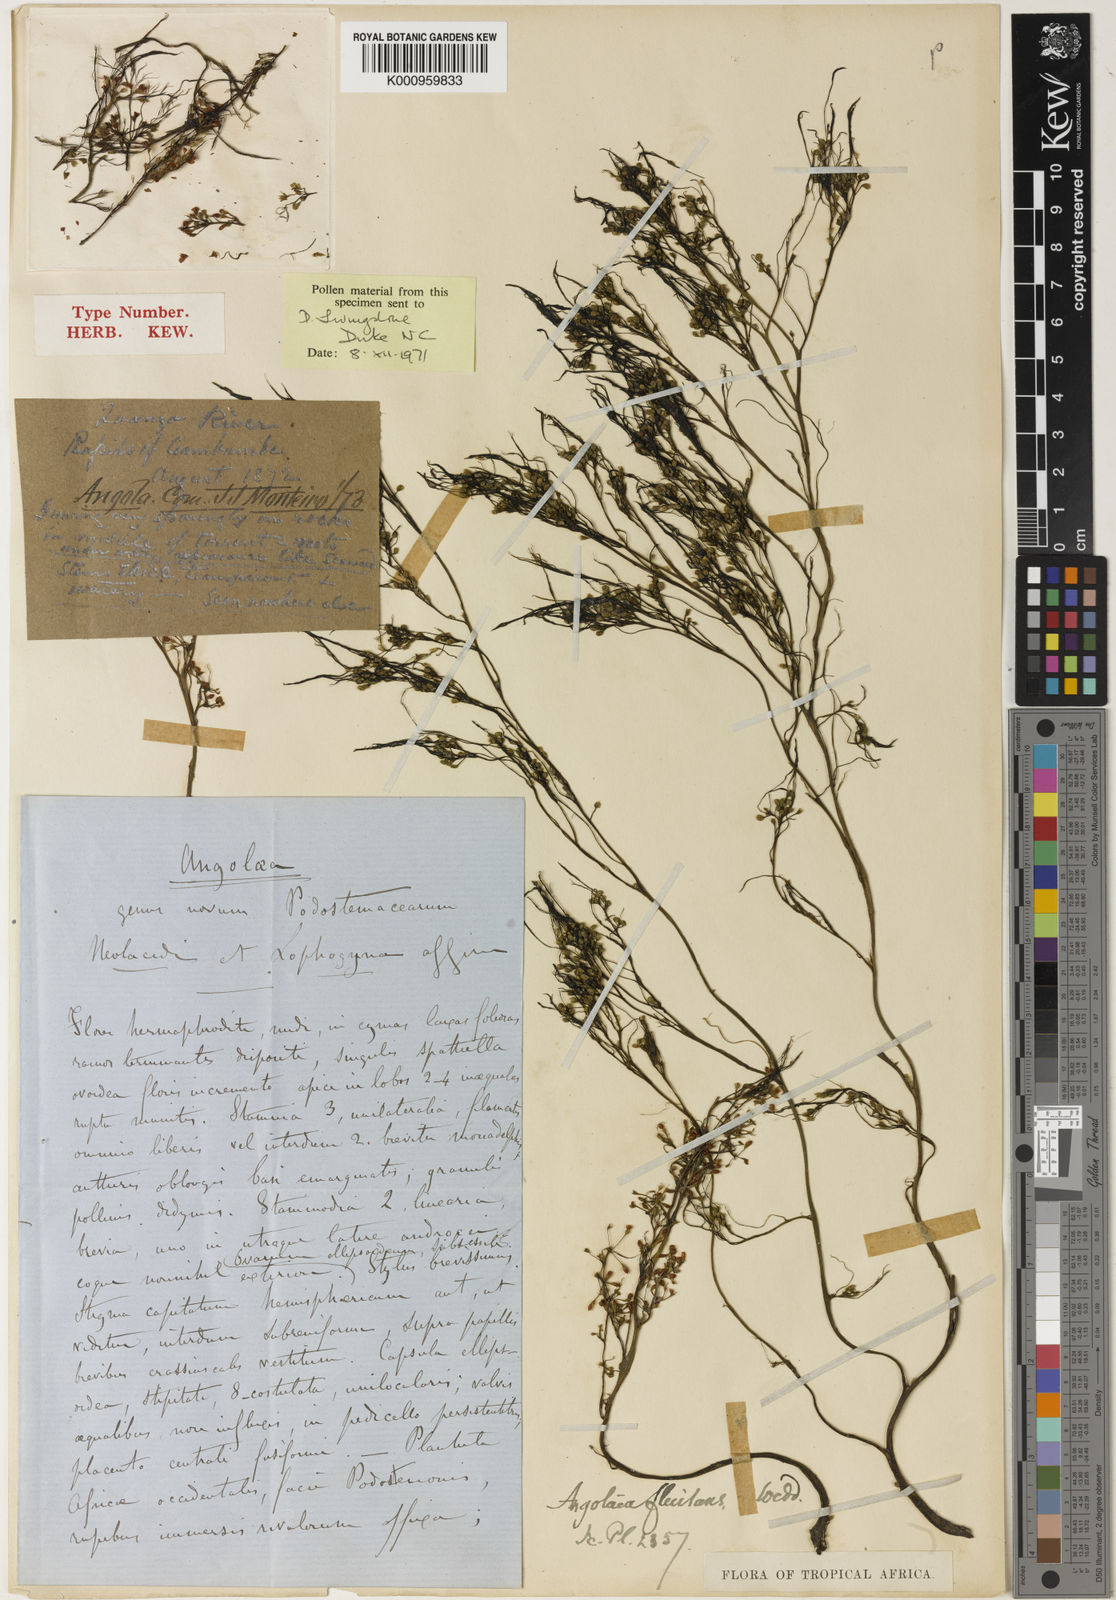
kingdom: Plantae
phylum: Tracheophyta
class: Magnoliopsida
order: Malpighiales
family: Podostemaceae
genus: Angolaea
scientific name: Angolaea fluitans
